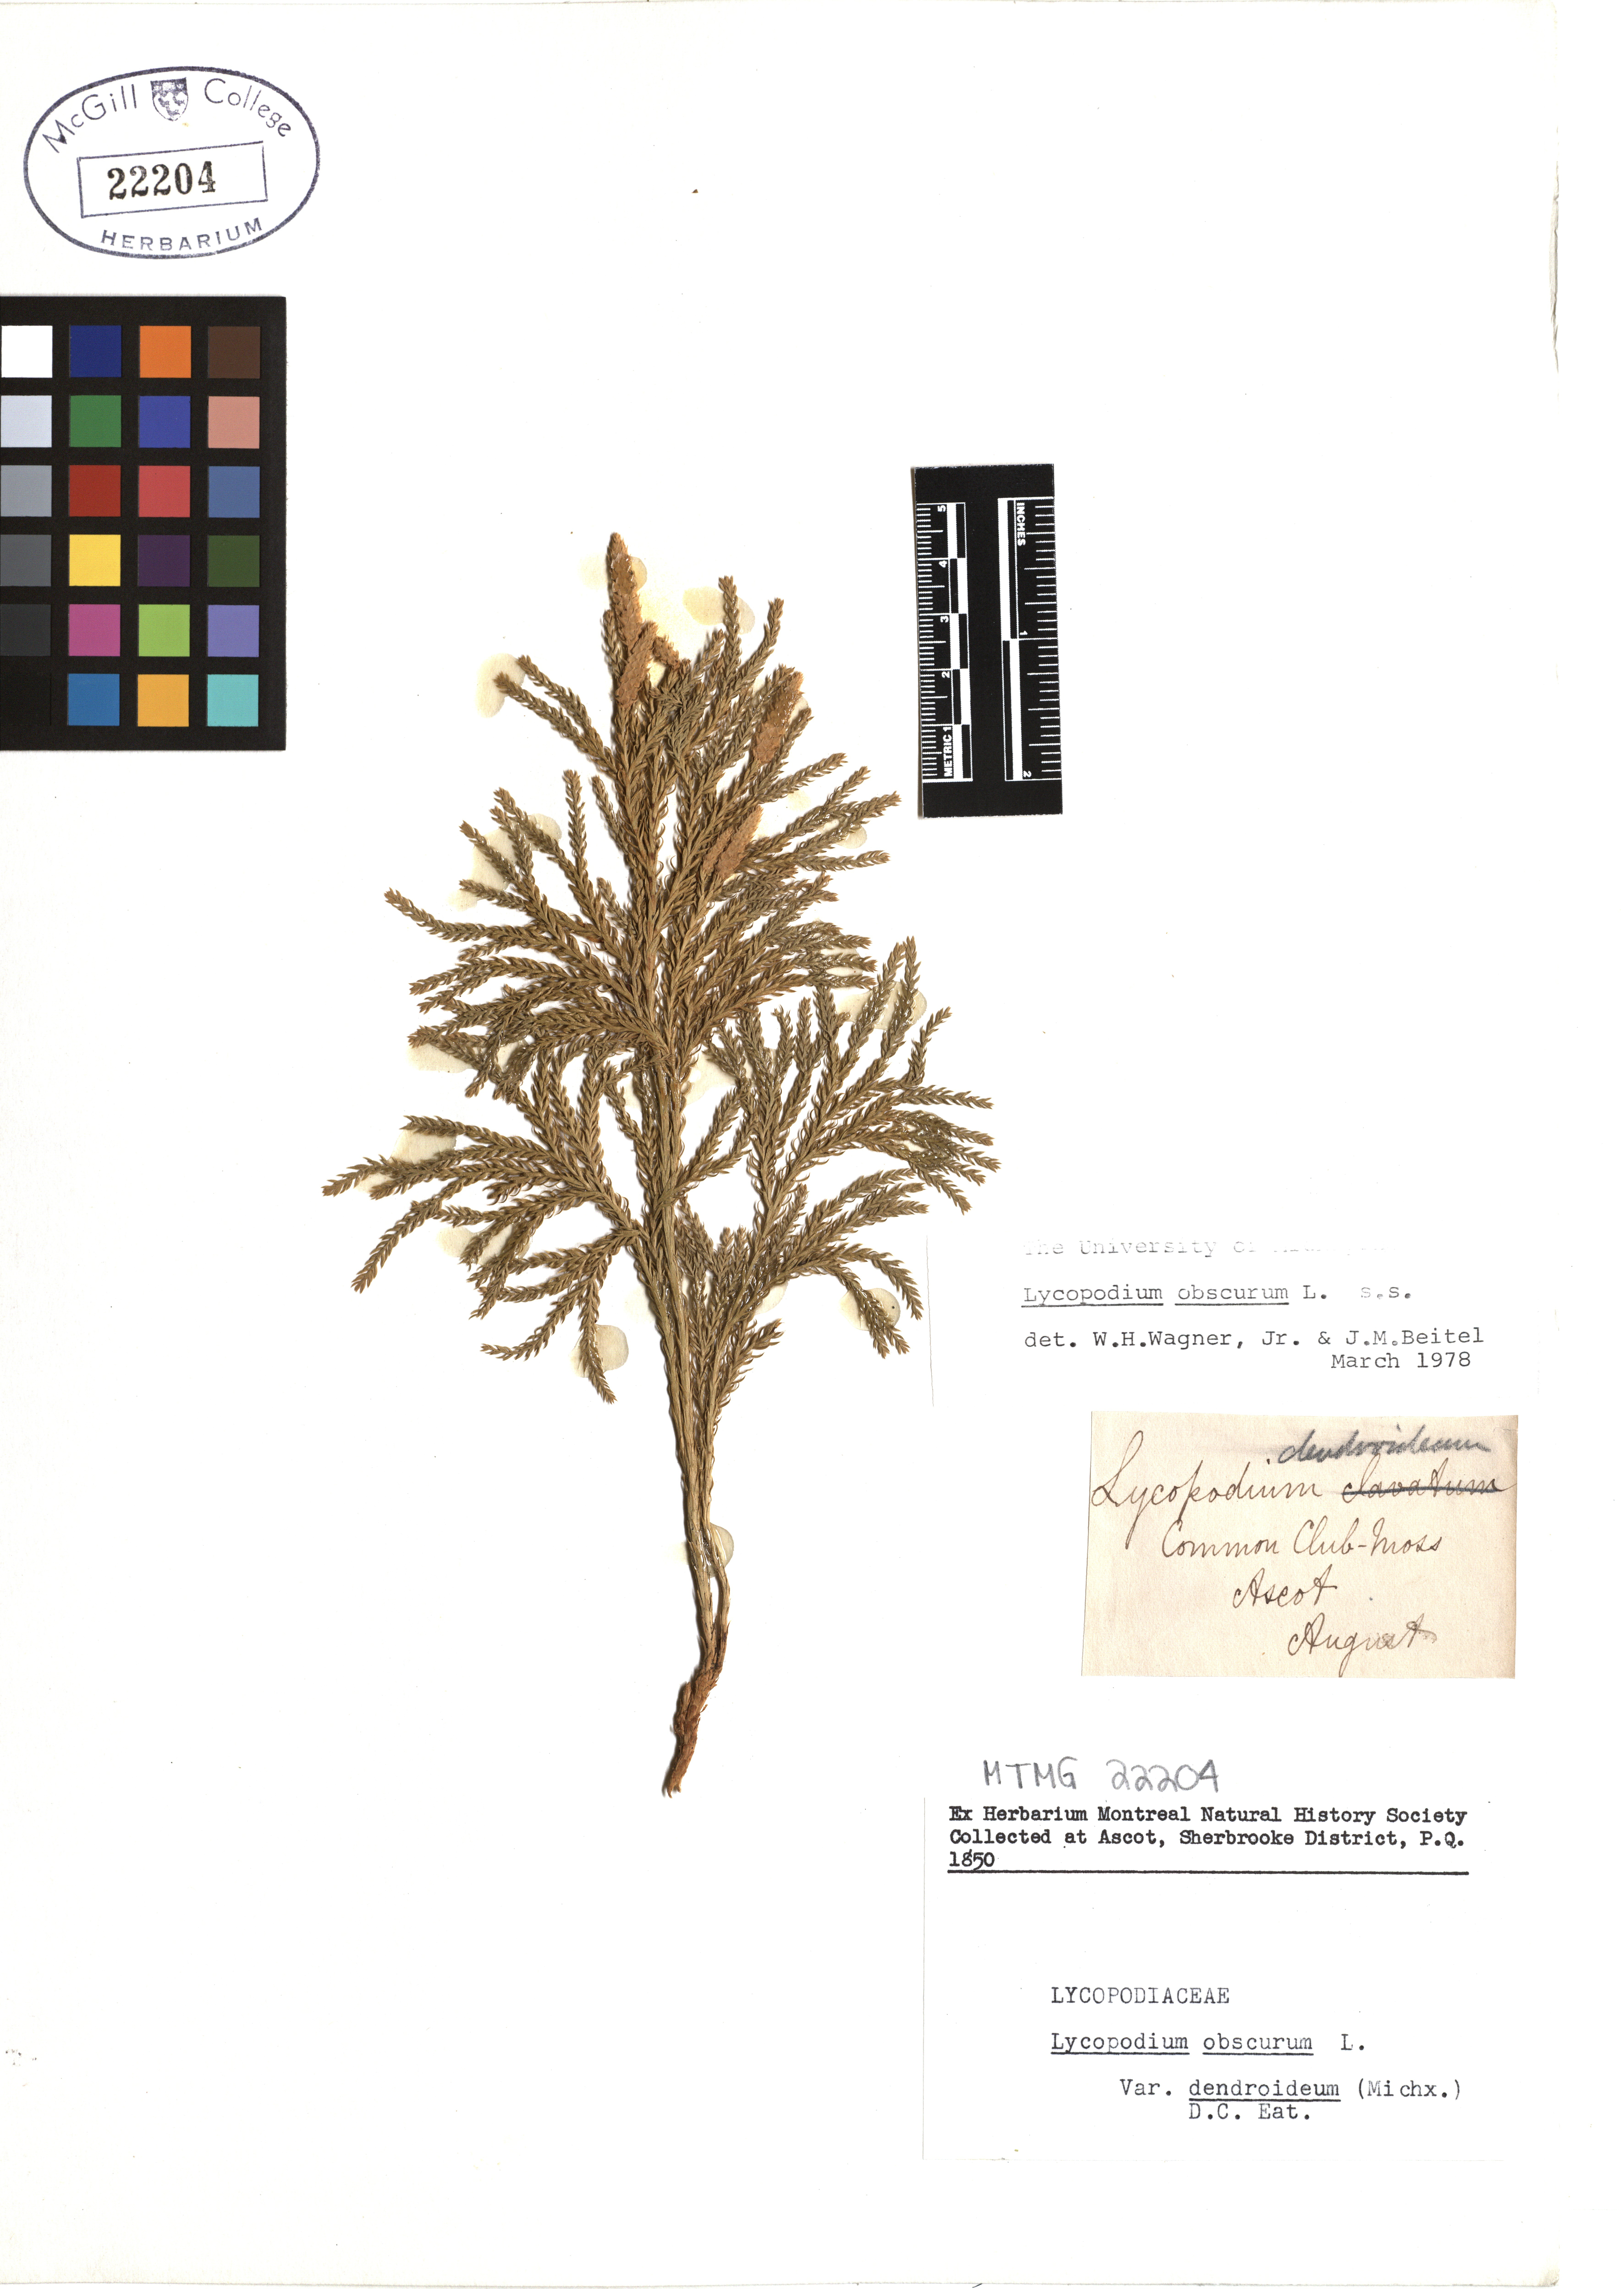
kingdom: Plantae
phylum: Tracheophyta
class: Lycopodiopsida
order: Lycopodiales
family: Lycopodiaceae
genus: Dendrolycopodium
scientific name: Dendrolycopodium obscurum
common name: Common ground-pine
